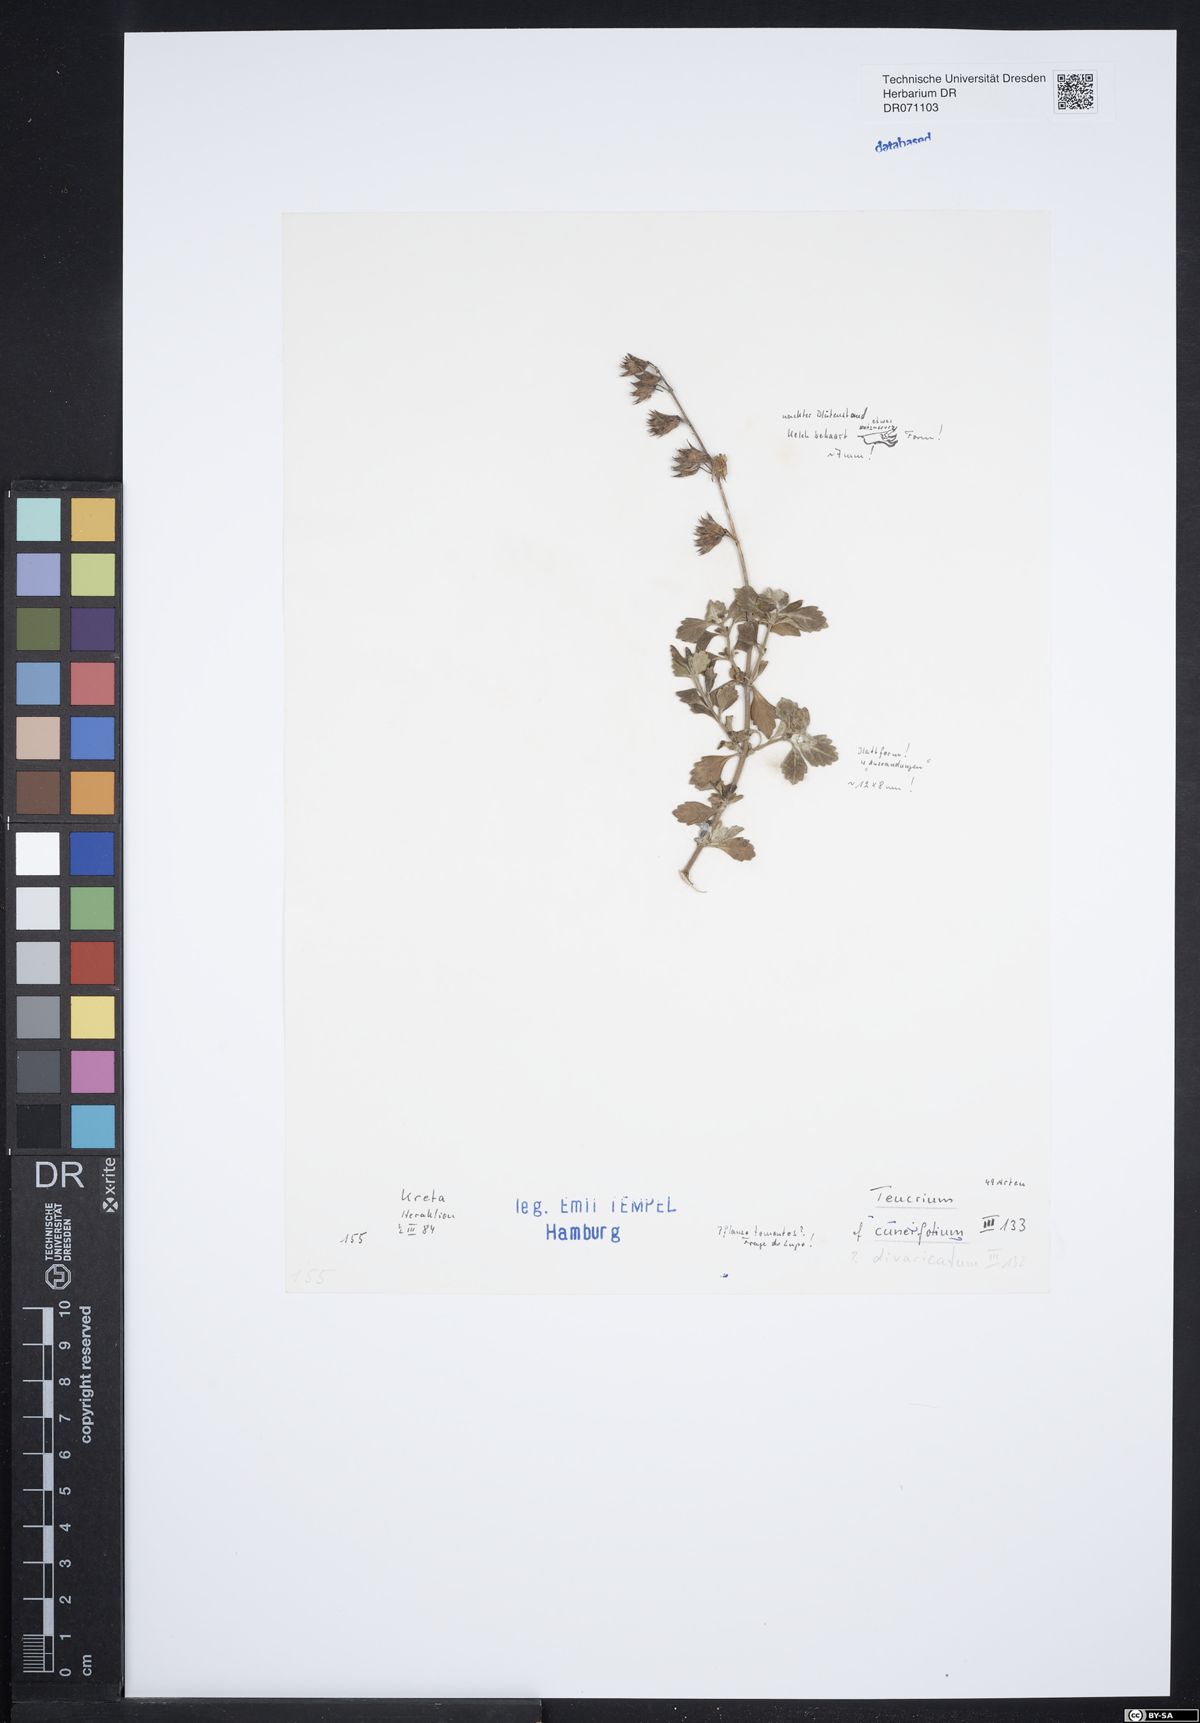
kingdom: Plantae
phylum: Tracheophyta
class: Magnoliopsida
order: Lamiales
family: Lamiaceae
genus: Teucrium
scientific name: Teucrium divaricatum
